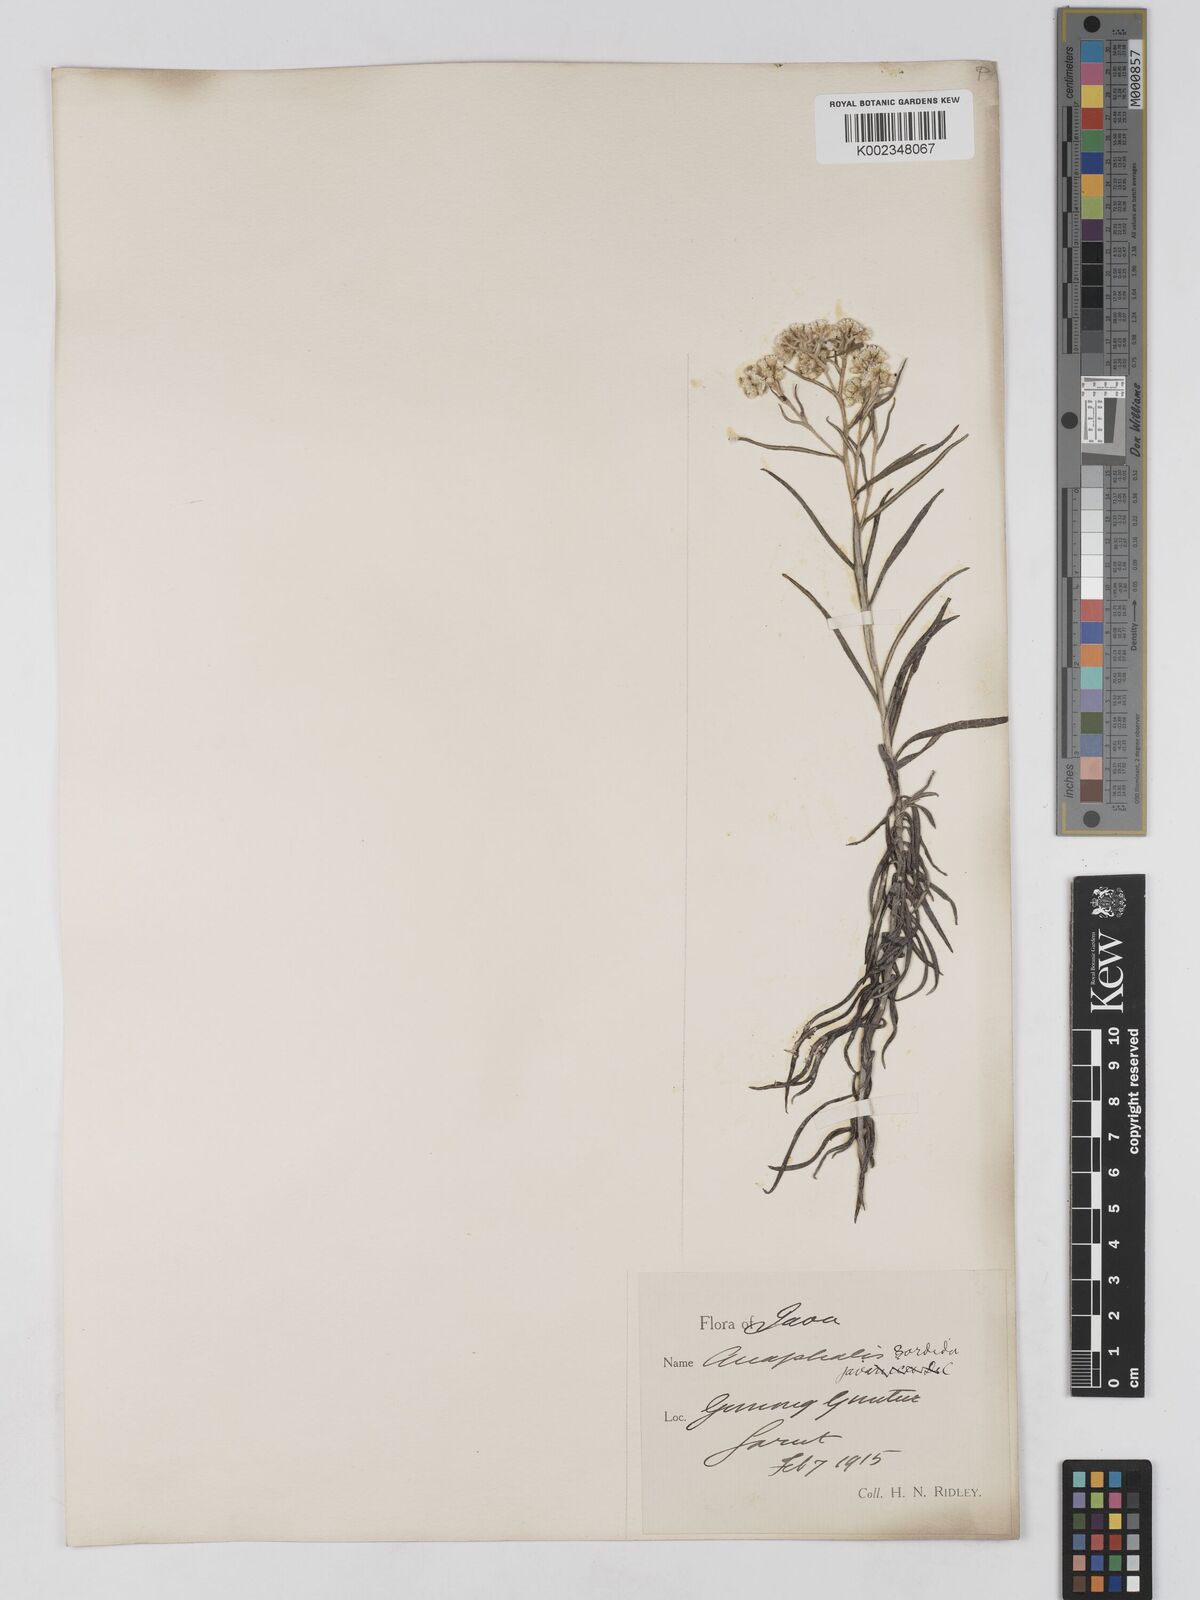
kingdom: Plantae
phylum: Tracheophyta
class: Magnoliopsida
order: Asterales
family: Asteraceae
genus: Anaphalis
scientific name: Anaphalis viscida
